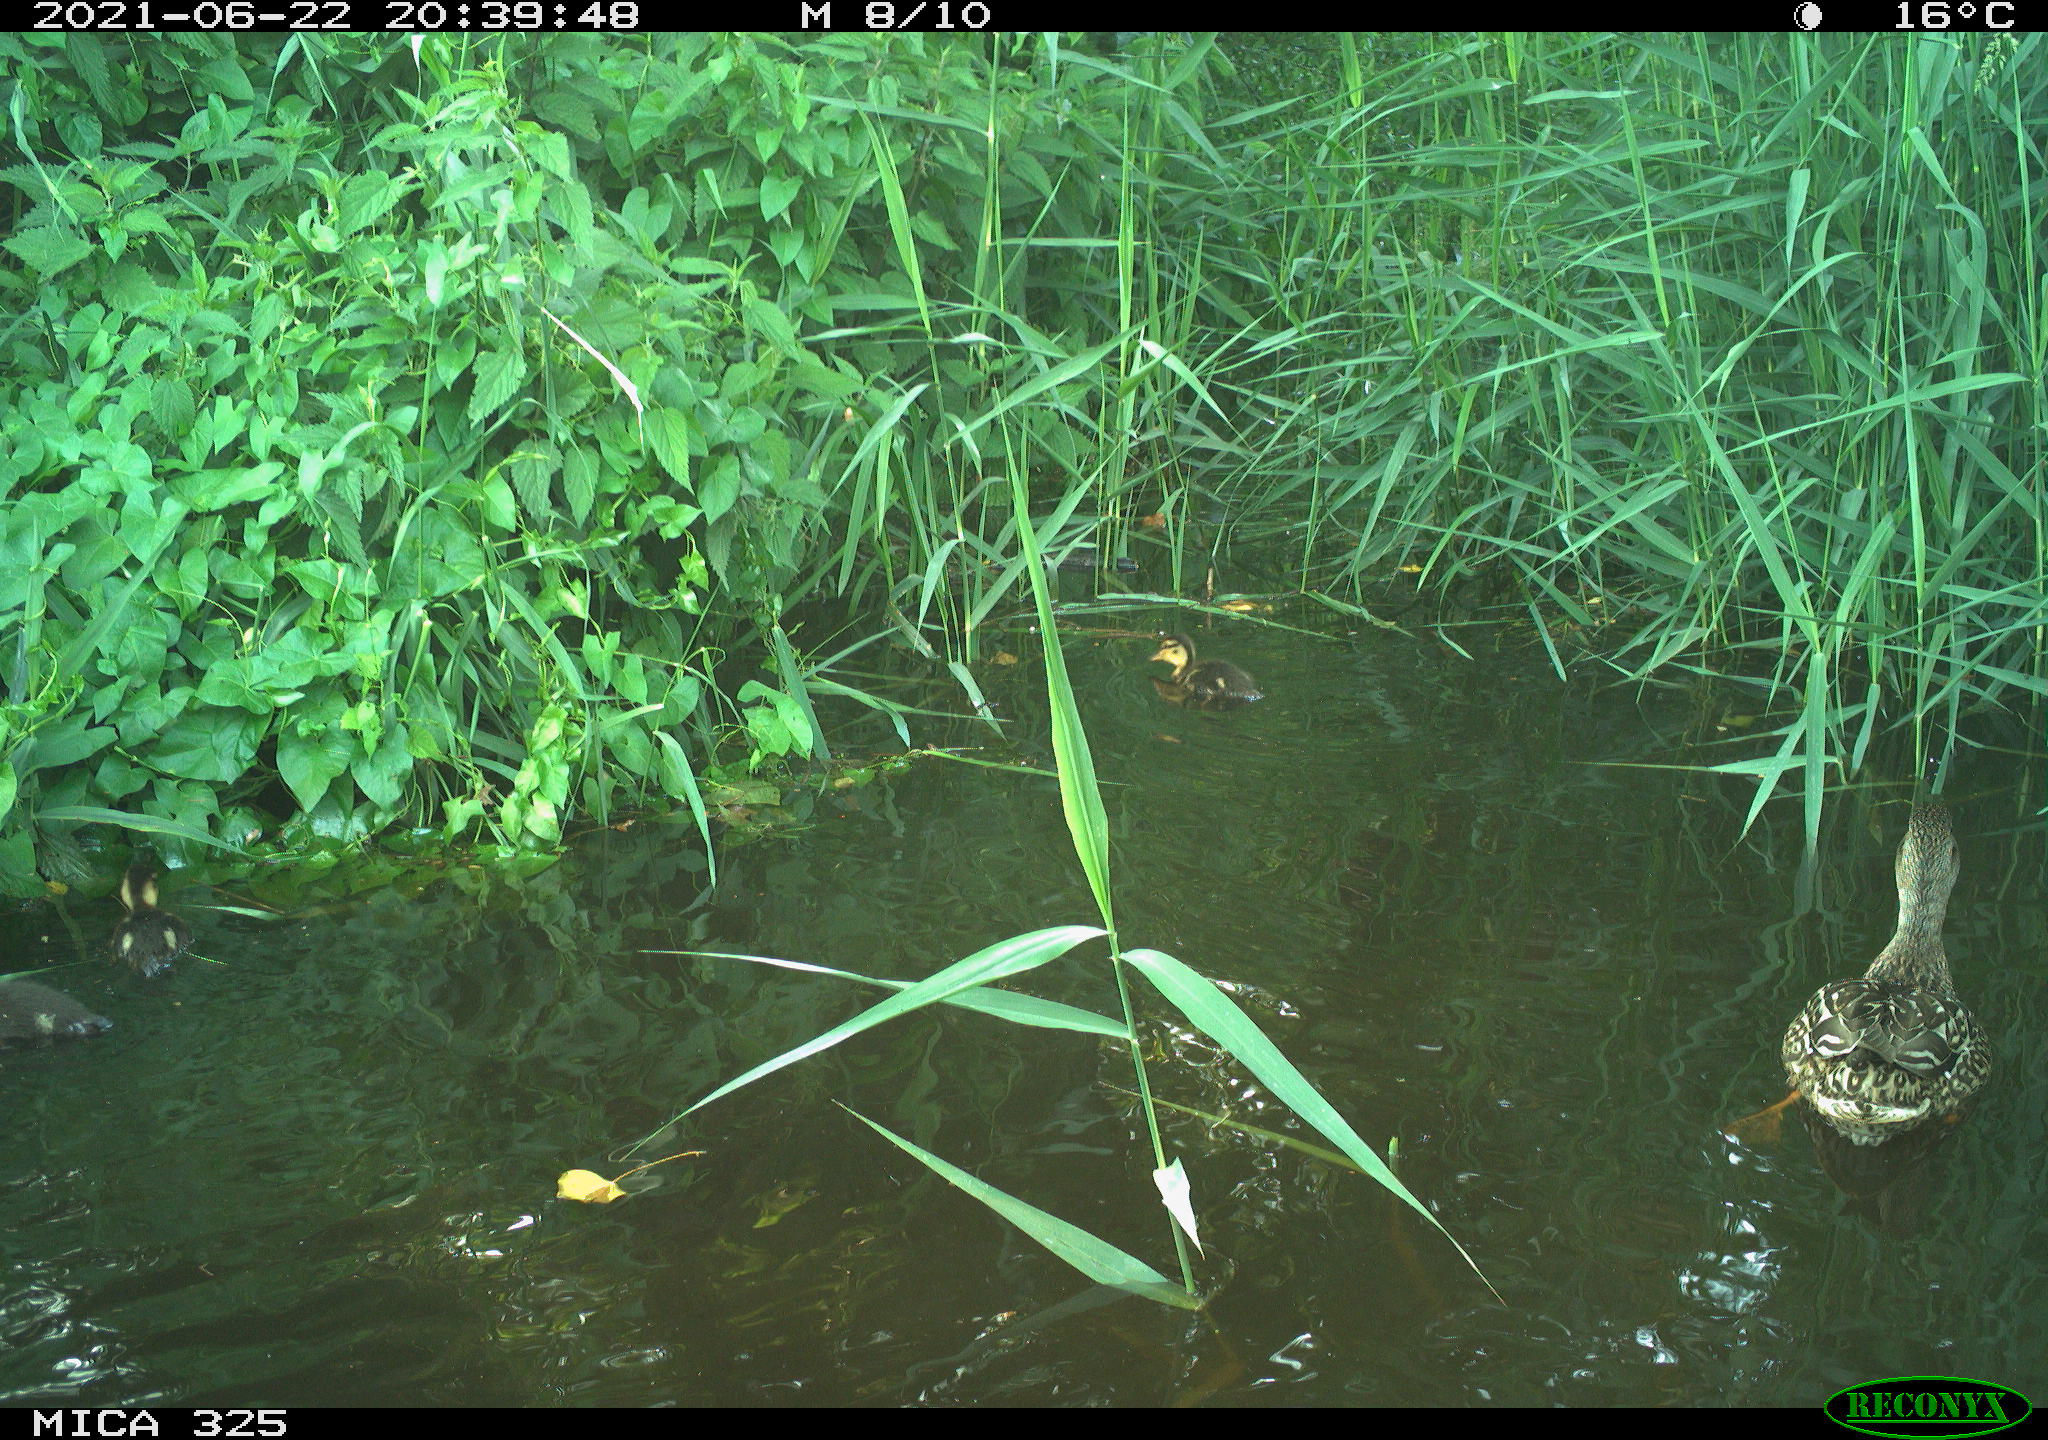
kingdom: Animalia
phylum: Chordata
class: Aves
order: Anseriformes
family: Anatidae
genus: Anas
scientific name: Anas platyrhynchos
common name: Mallard
